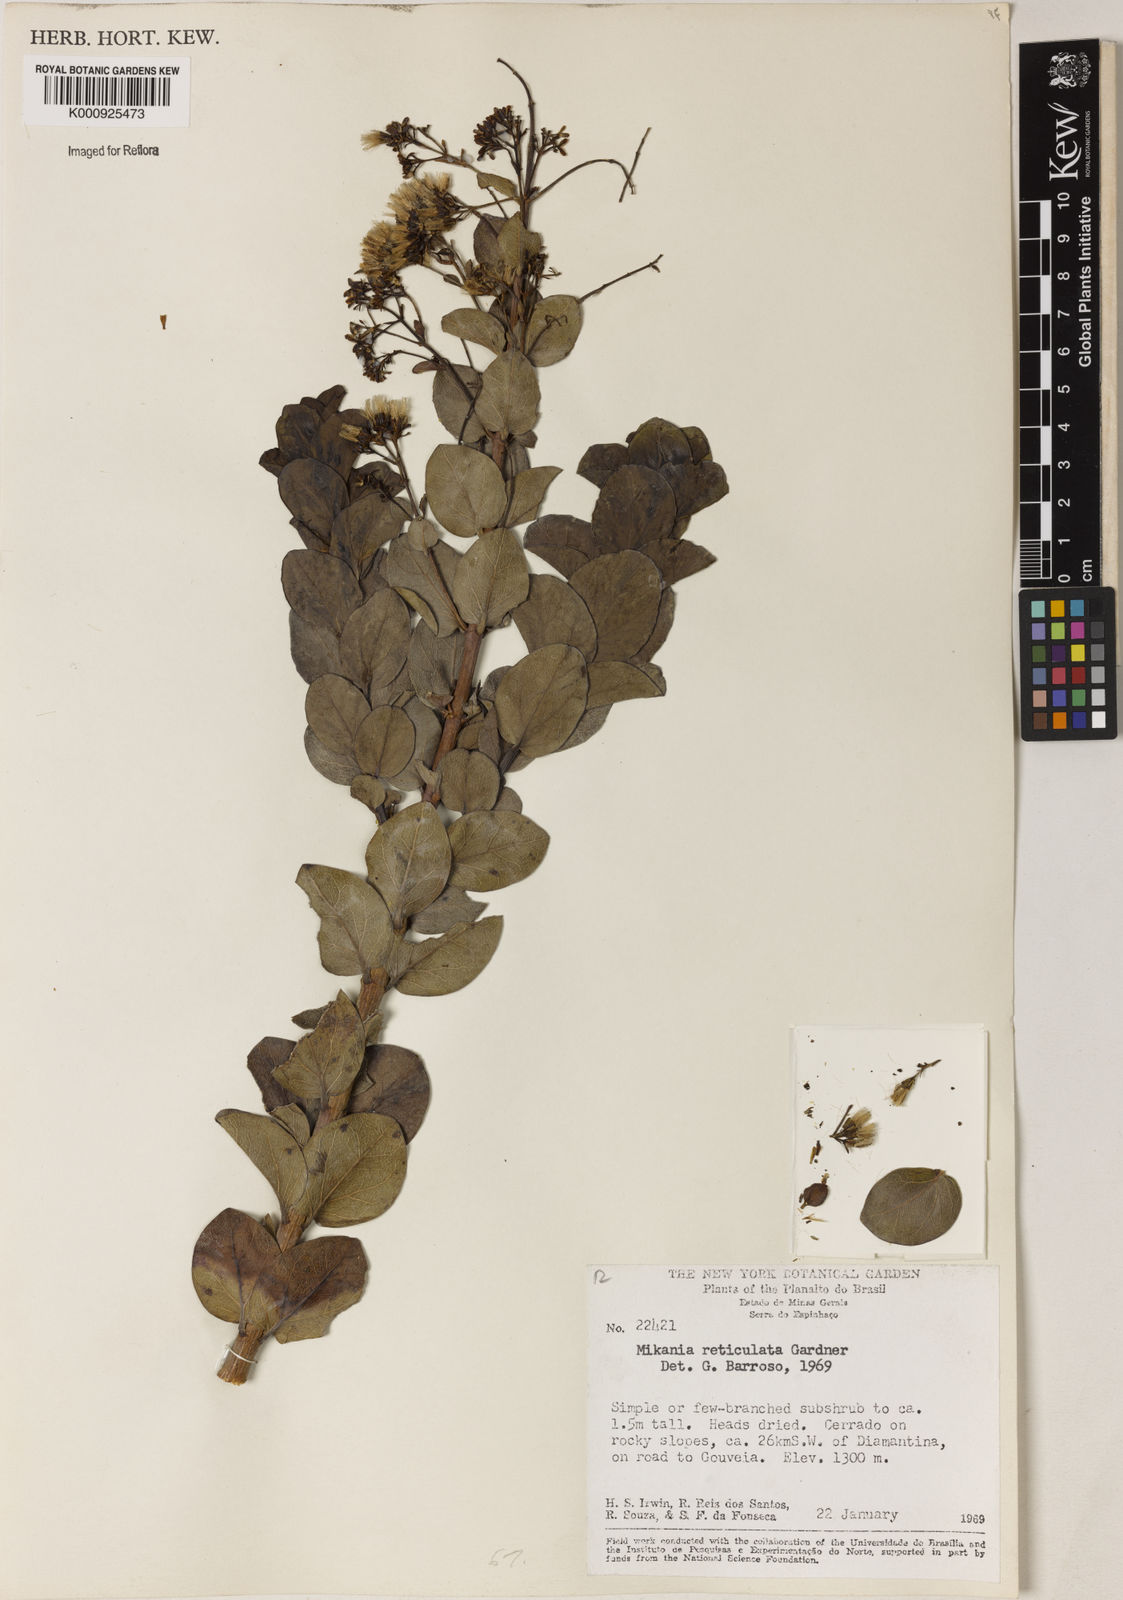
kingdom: Plantae
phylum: Tracheophyta
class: Magnoliopsida
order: Asterales
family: Asteraceae
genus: Mikania
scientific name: Mikania
